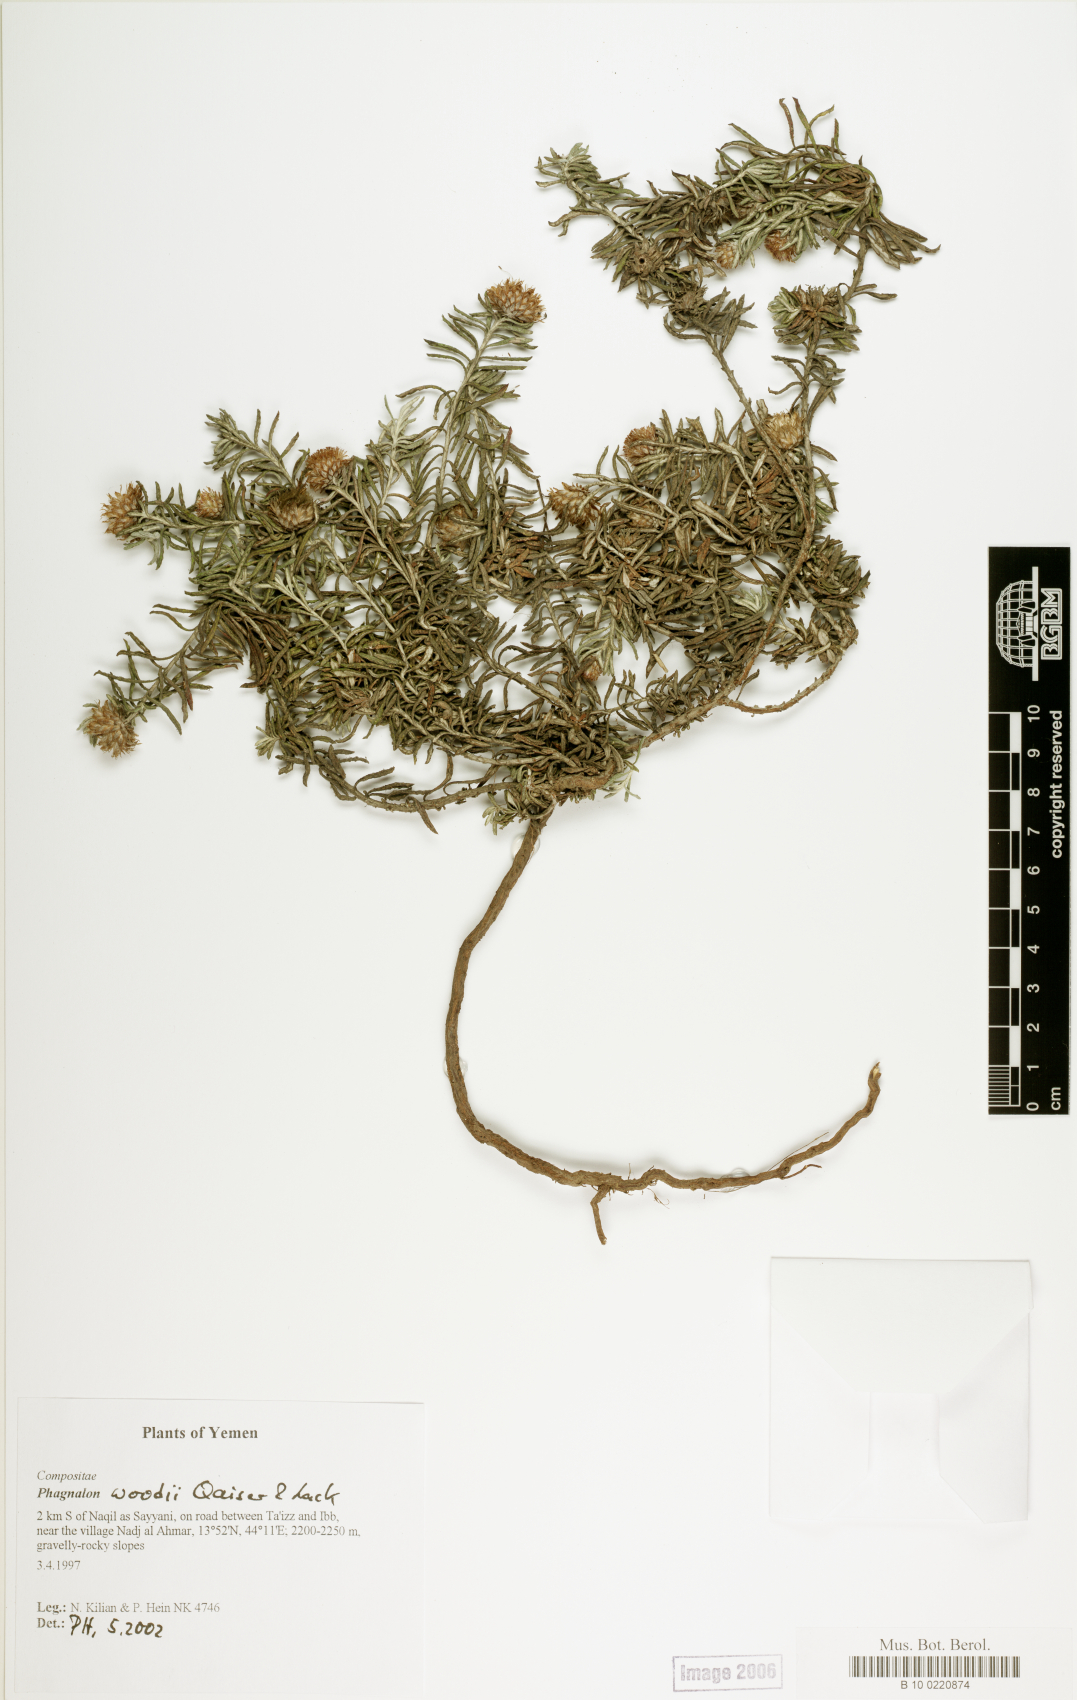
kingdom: Plantae
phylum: Tracheophyta
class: Magnoliopsida
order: Asterales
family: Asteraceae
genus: Phagnalon
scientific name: Phagnalon woodii
